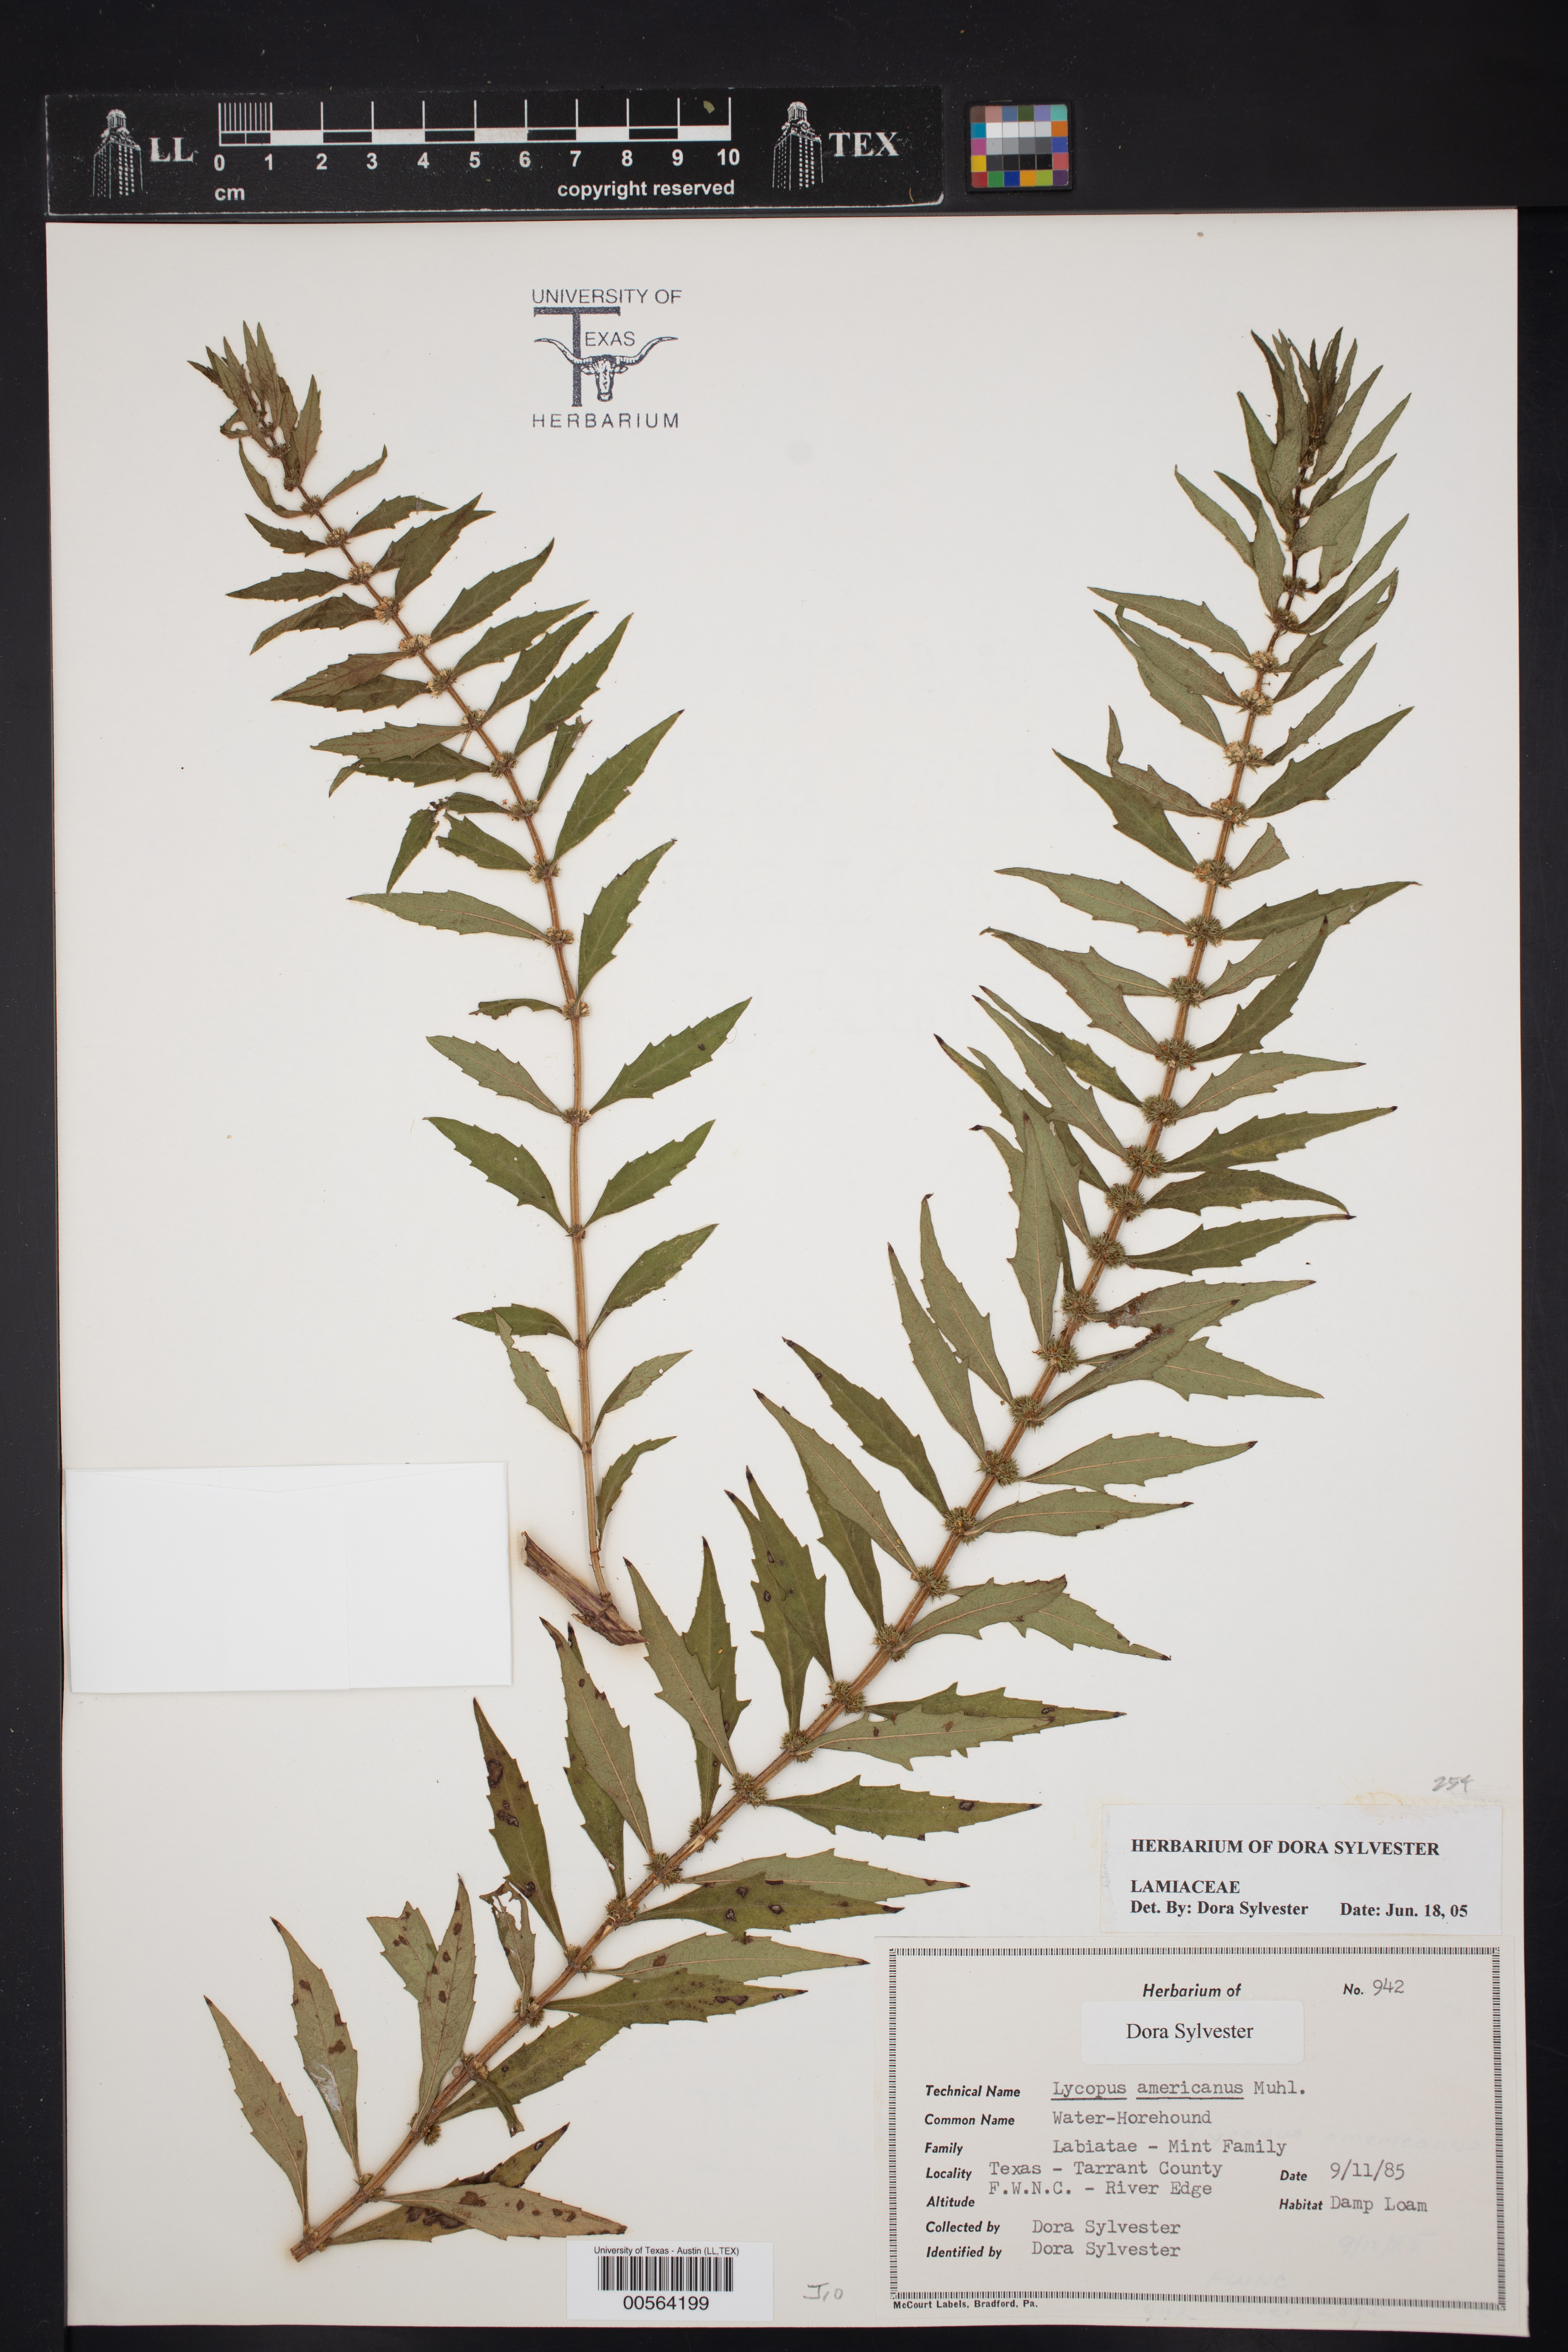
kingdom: Plantae
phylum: Tracheophyta
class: Magnoliopsida
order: Lamiales
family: Lamiaceae
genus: Lycopus
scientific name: Lycopus americanus
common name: American bugleweed
